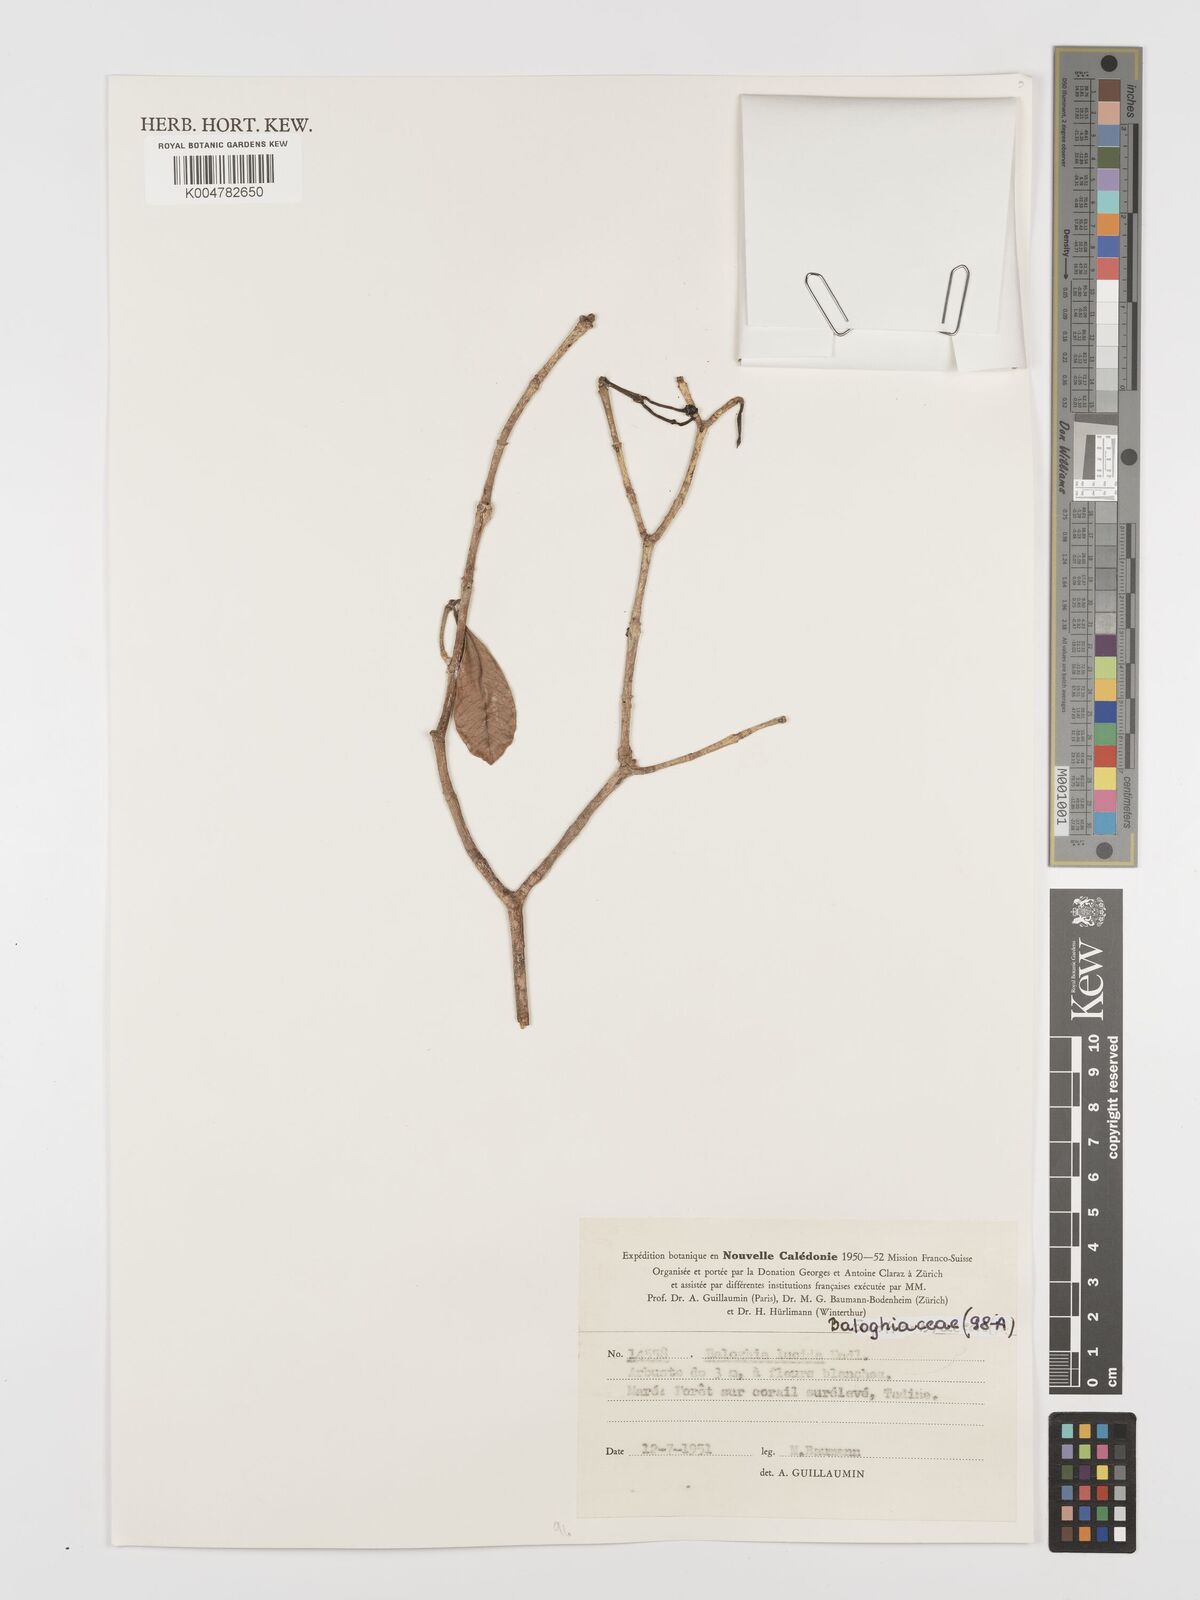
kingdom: Plantae
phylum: Tracheophyta
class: Magnoliopsida
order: Malpighiales
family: Euphorbiaceae
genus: Baloghia
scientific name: Baloghia inophylla
